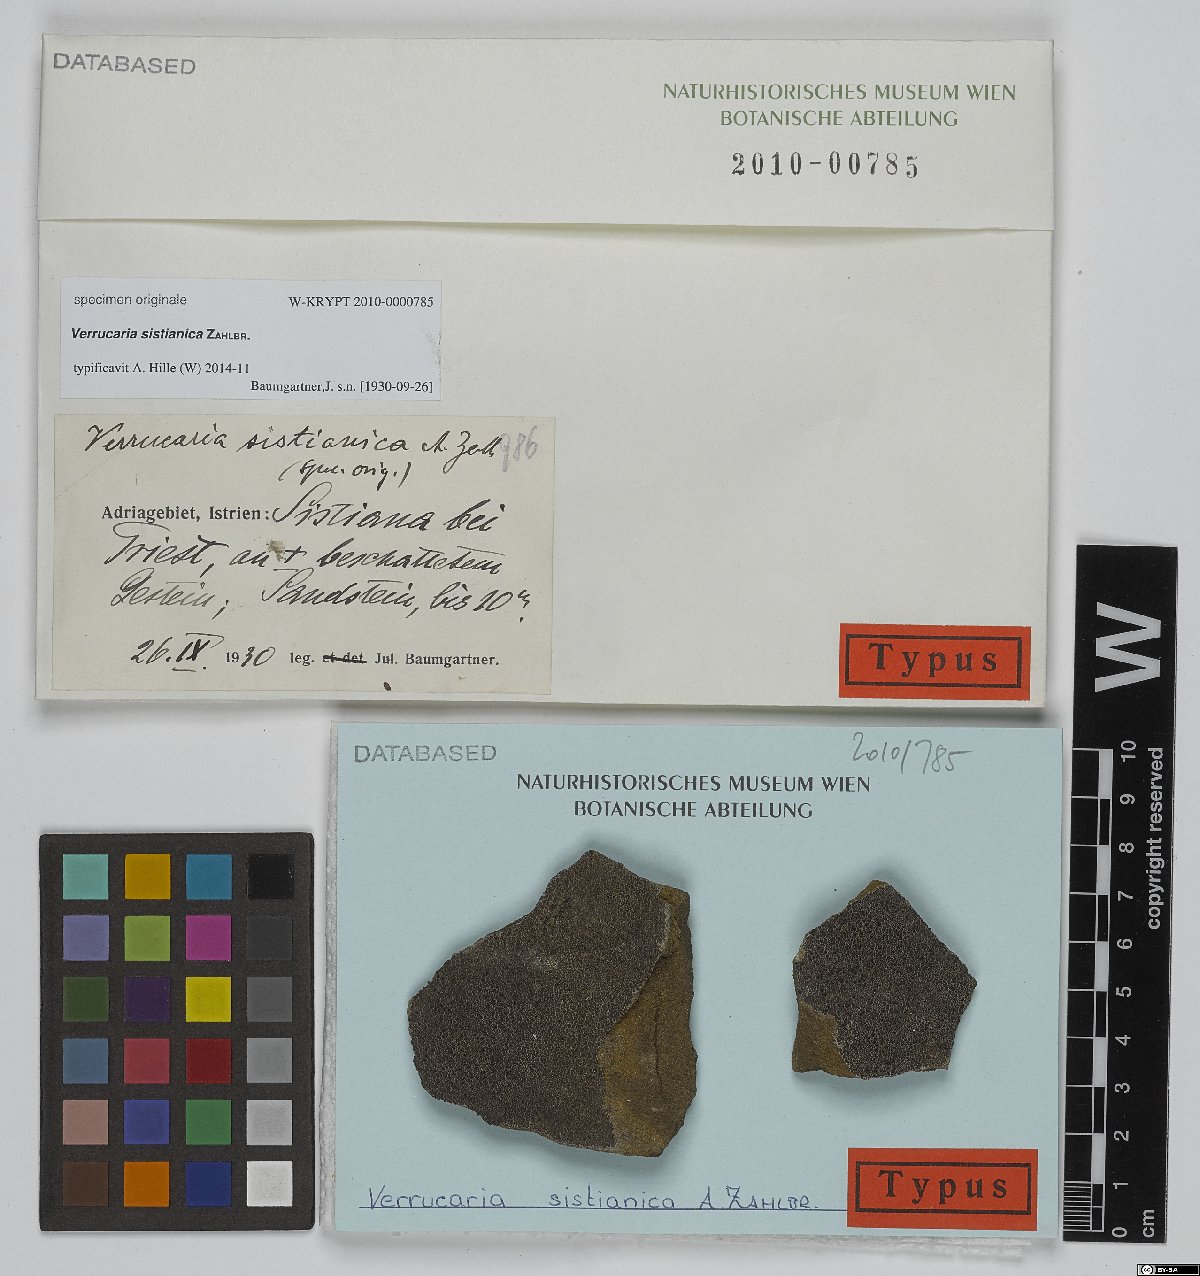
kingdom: Fungi
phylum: Ascomycota
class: Eurotiomycetes
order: Verrucariales
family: Verrucariaceae
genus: Verrucaria
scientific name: Verrucaria
